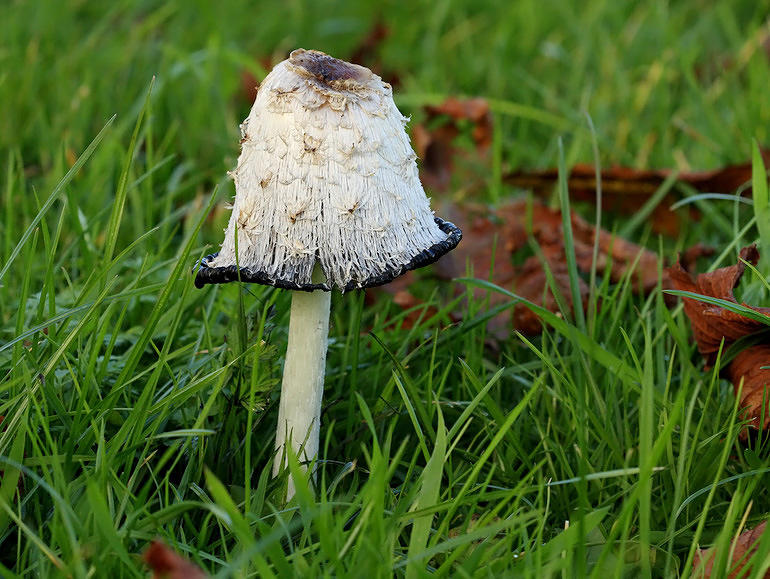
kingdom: Fungi
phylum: Basidiomycota
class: Agaricomycetes
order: Agaricales
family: Agaricaceae
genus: Coprinus
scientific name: Coprinus comatus
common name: stor parykhat
